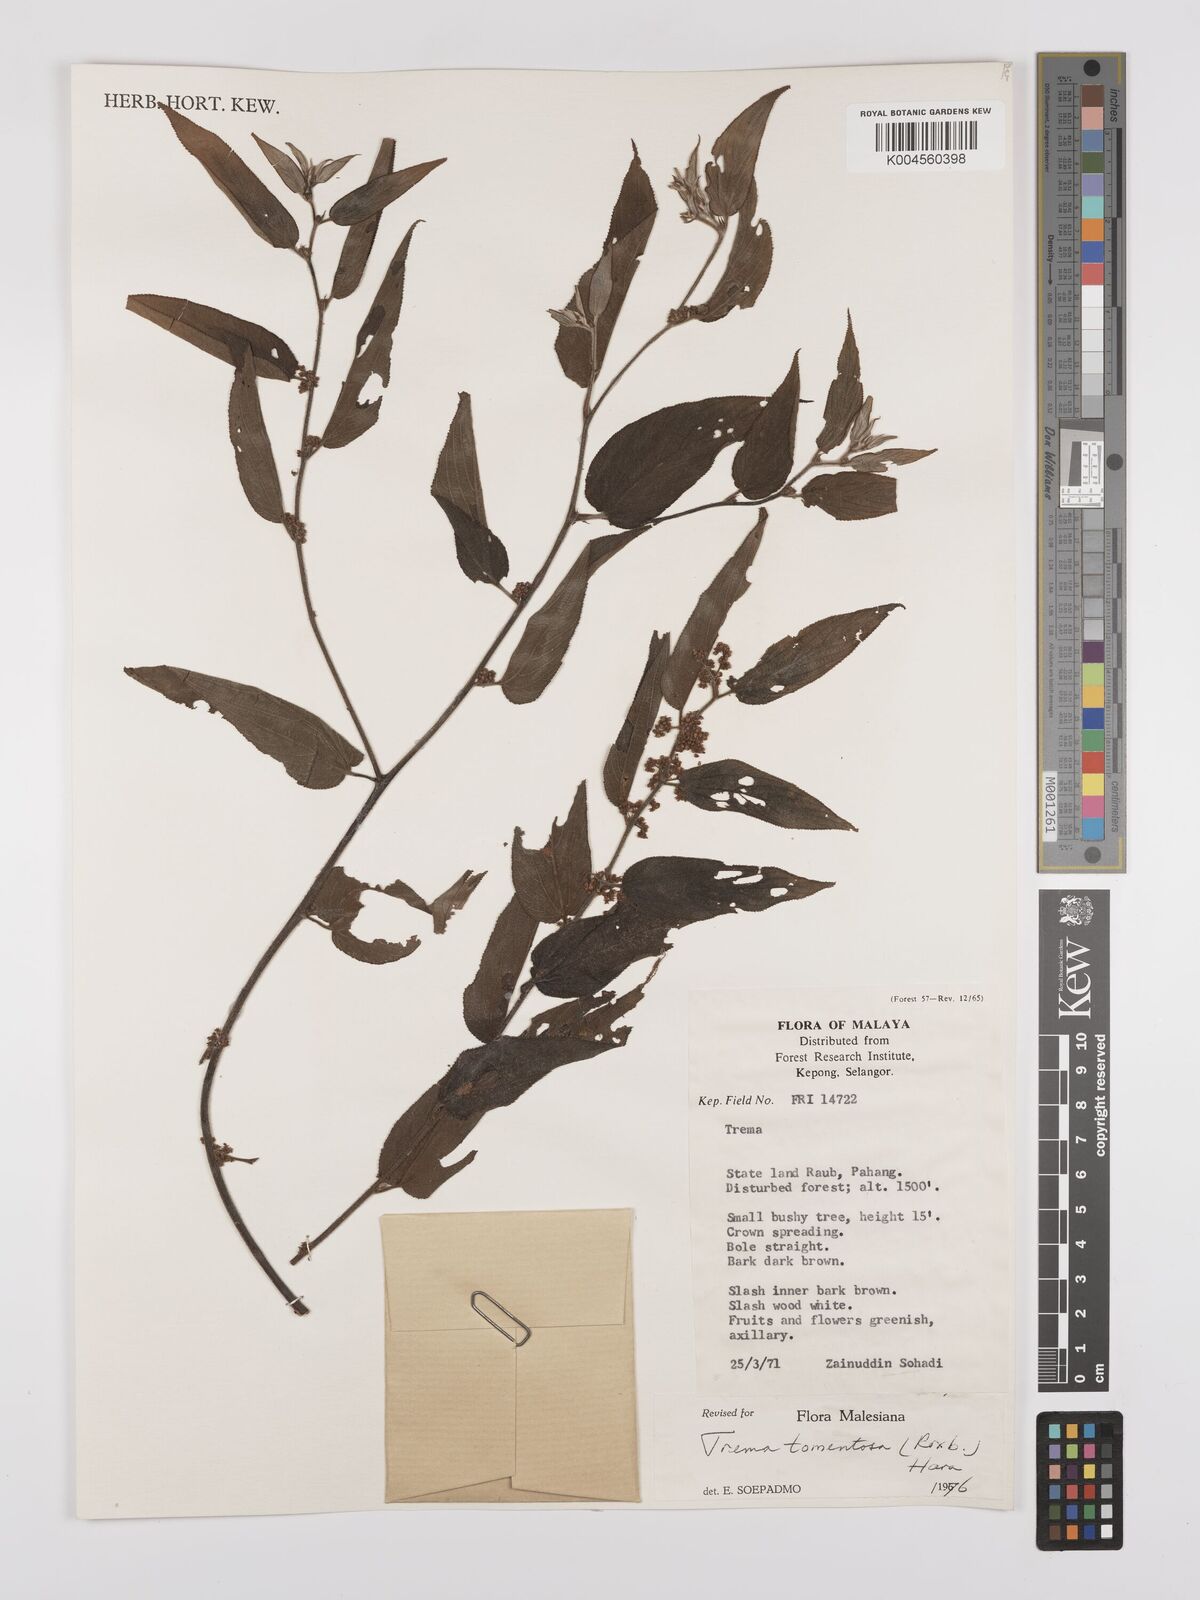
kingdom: Plantae
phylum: Tracheophyta
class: Magnoliopsida
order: Rosales
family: Cannabaceae
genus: Trema
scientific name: Trema tomentosum
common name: Peach-leaf-poisonbush
